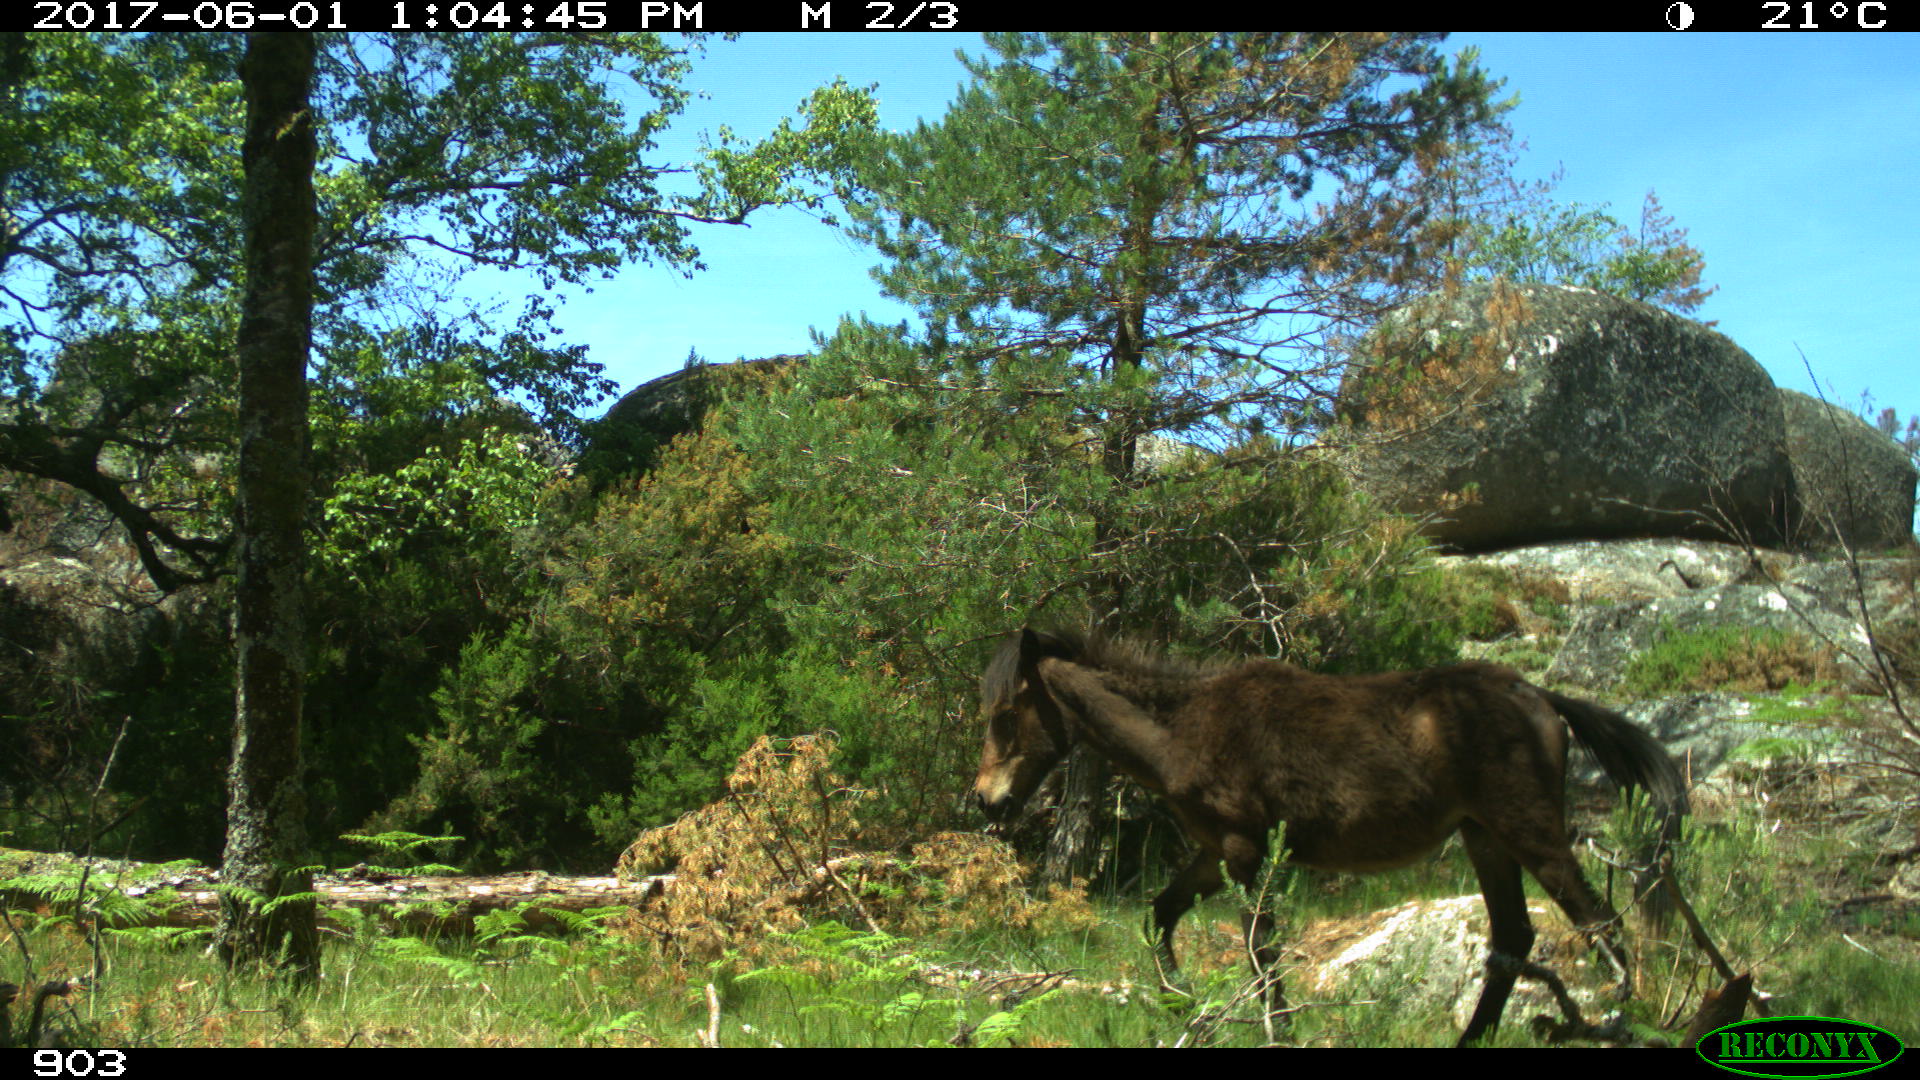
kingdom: Animalia
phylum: Chordata
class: Mammalia
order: Perissodactyla
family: Equidae
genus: Equus
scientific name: Equus caballus
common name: Horse
